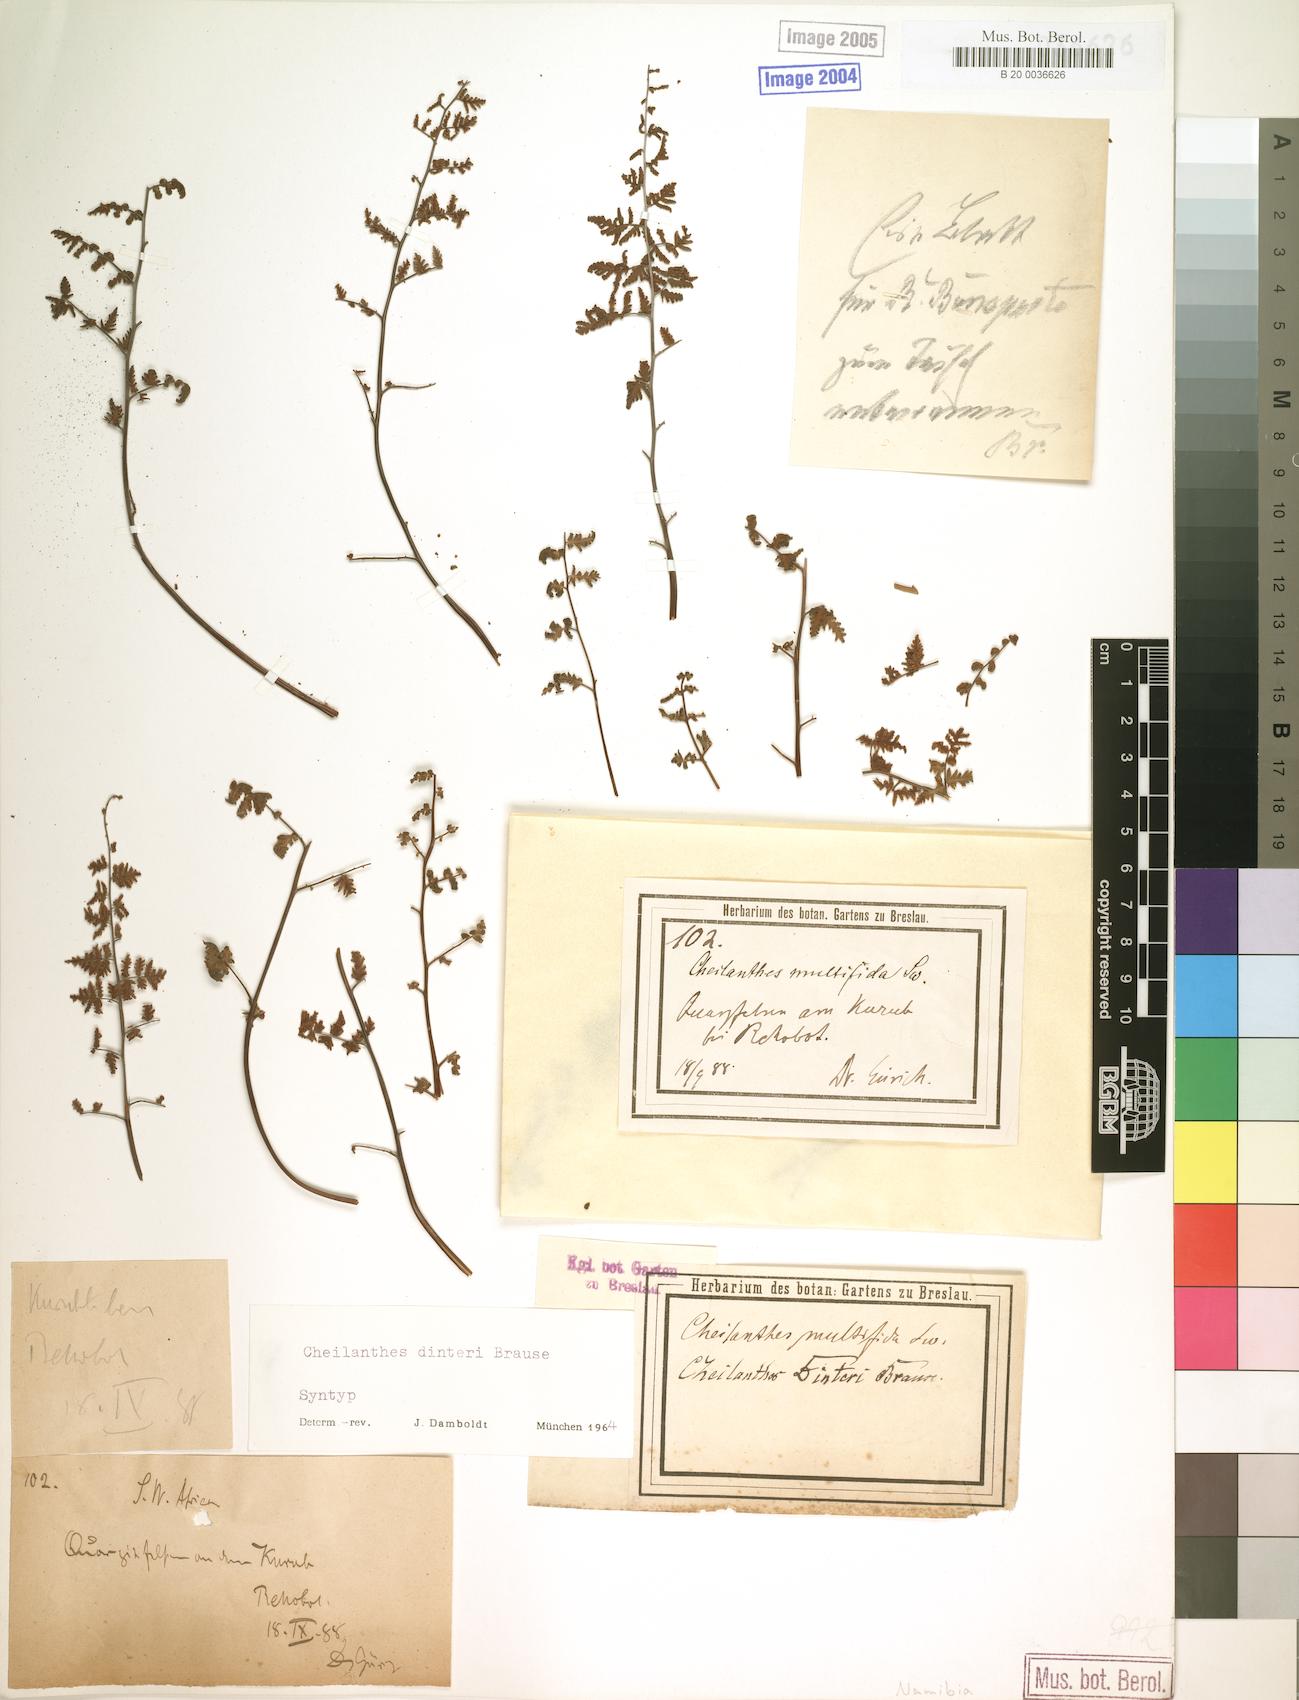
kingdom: Plantae
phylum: Tracheophyta
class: Polypodiopsida
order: Polypodiales
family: Pteridaceae
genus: Cheilanthes
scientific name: Cheilanthes dinteri
